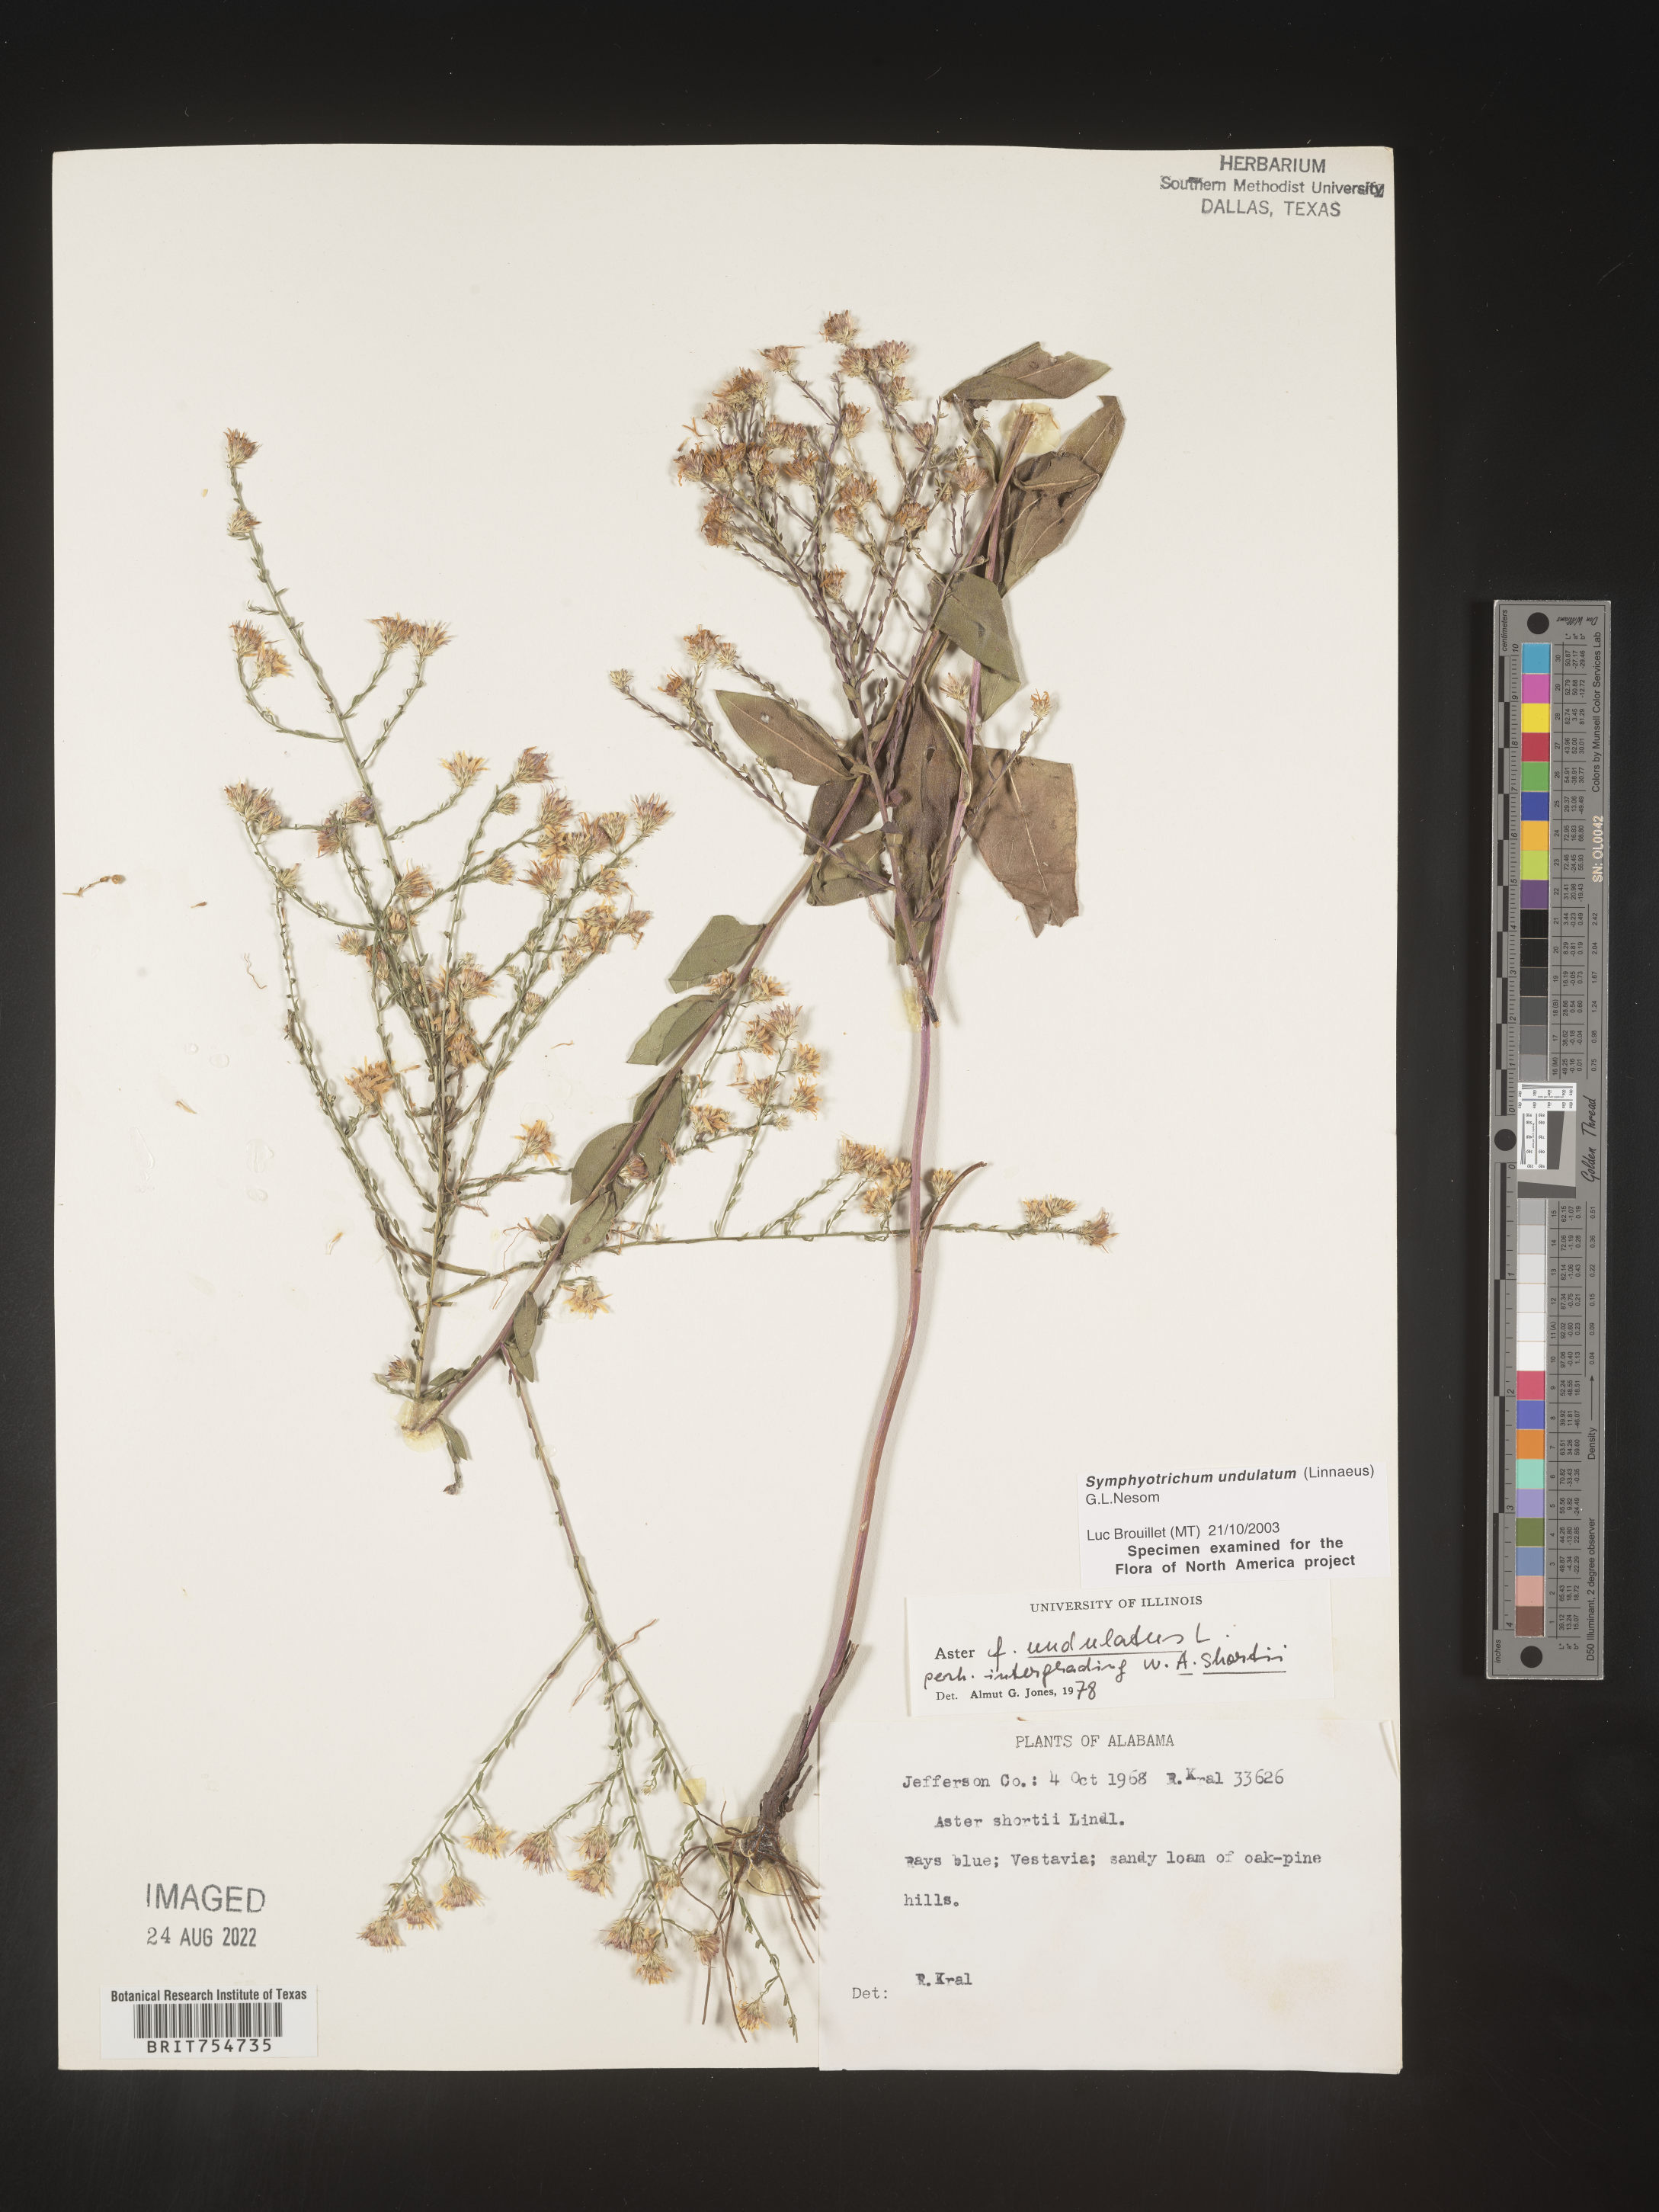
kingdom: Plantae
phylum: Tracheophyta
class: Magnoliopsida
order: Asterales
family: Asteraceae
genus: Symphyotrichum
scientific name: Symphyotrichum undulatum
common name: Clasping heart-leaf aster
